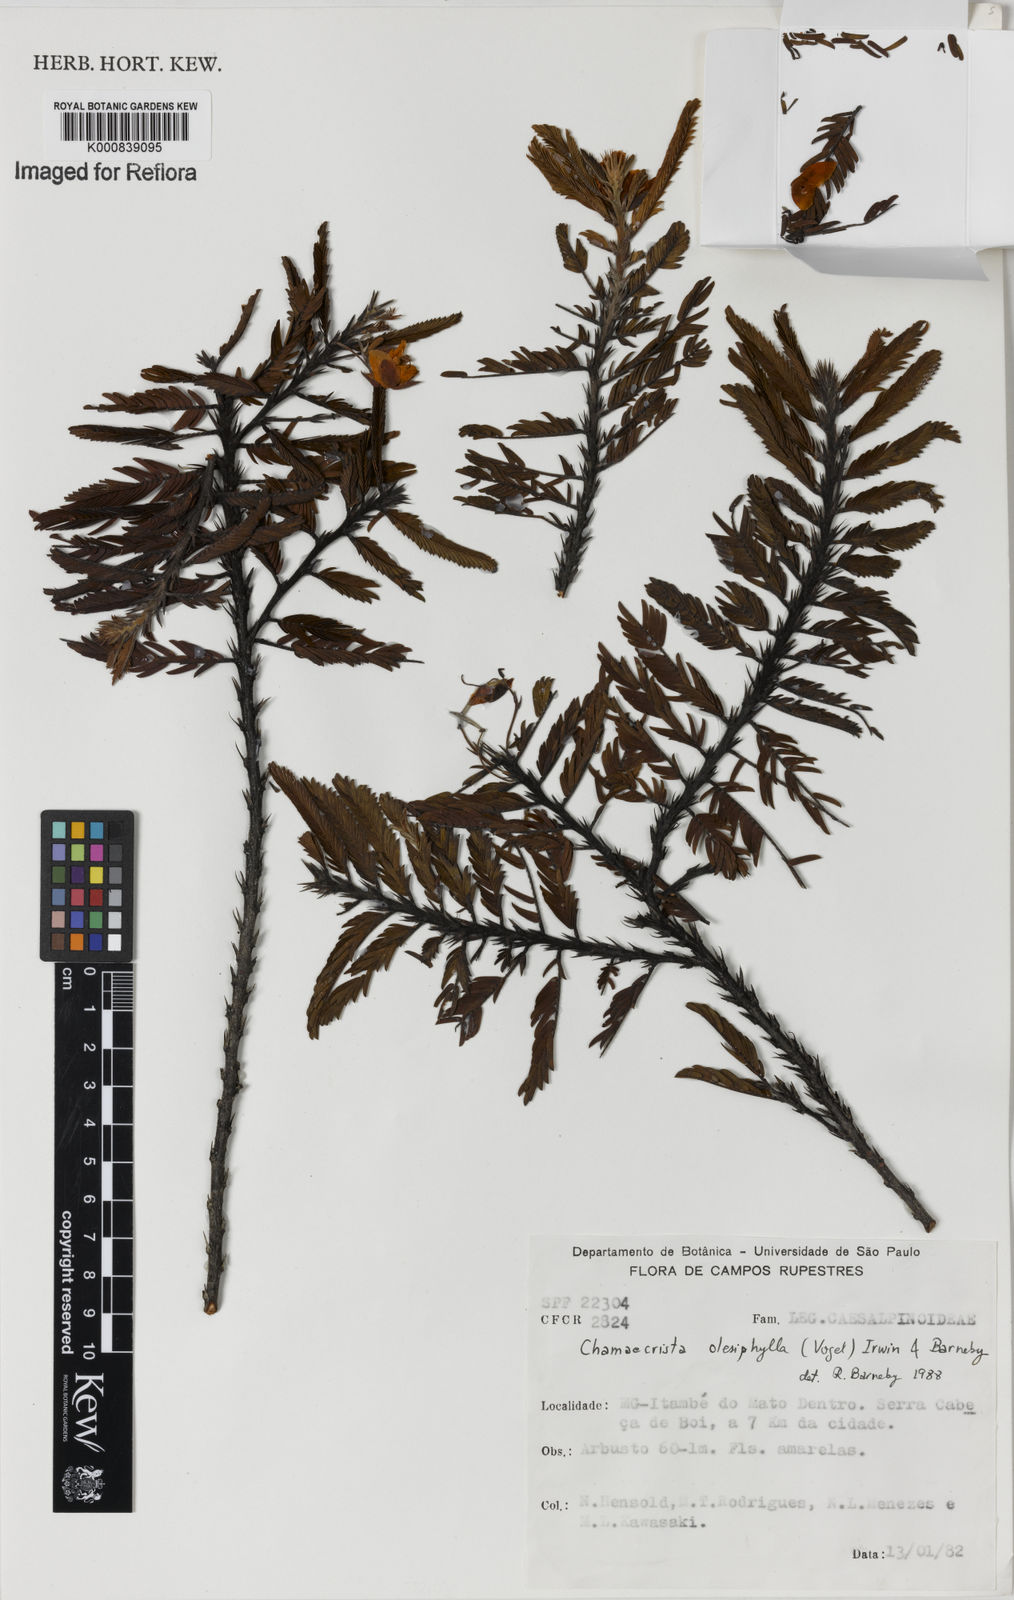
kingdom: Plantae
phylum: Tracheophyta
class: Magnoliopsida
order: Fabales
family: Fabaceae
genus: Chamaecrista
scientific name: Chamaecrista
